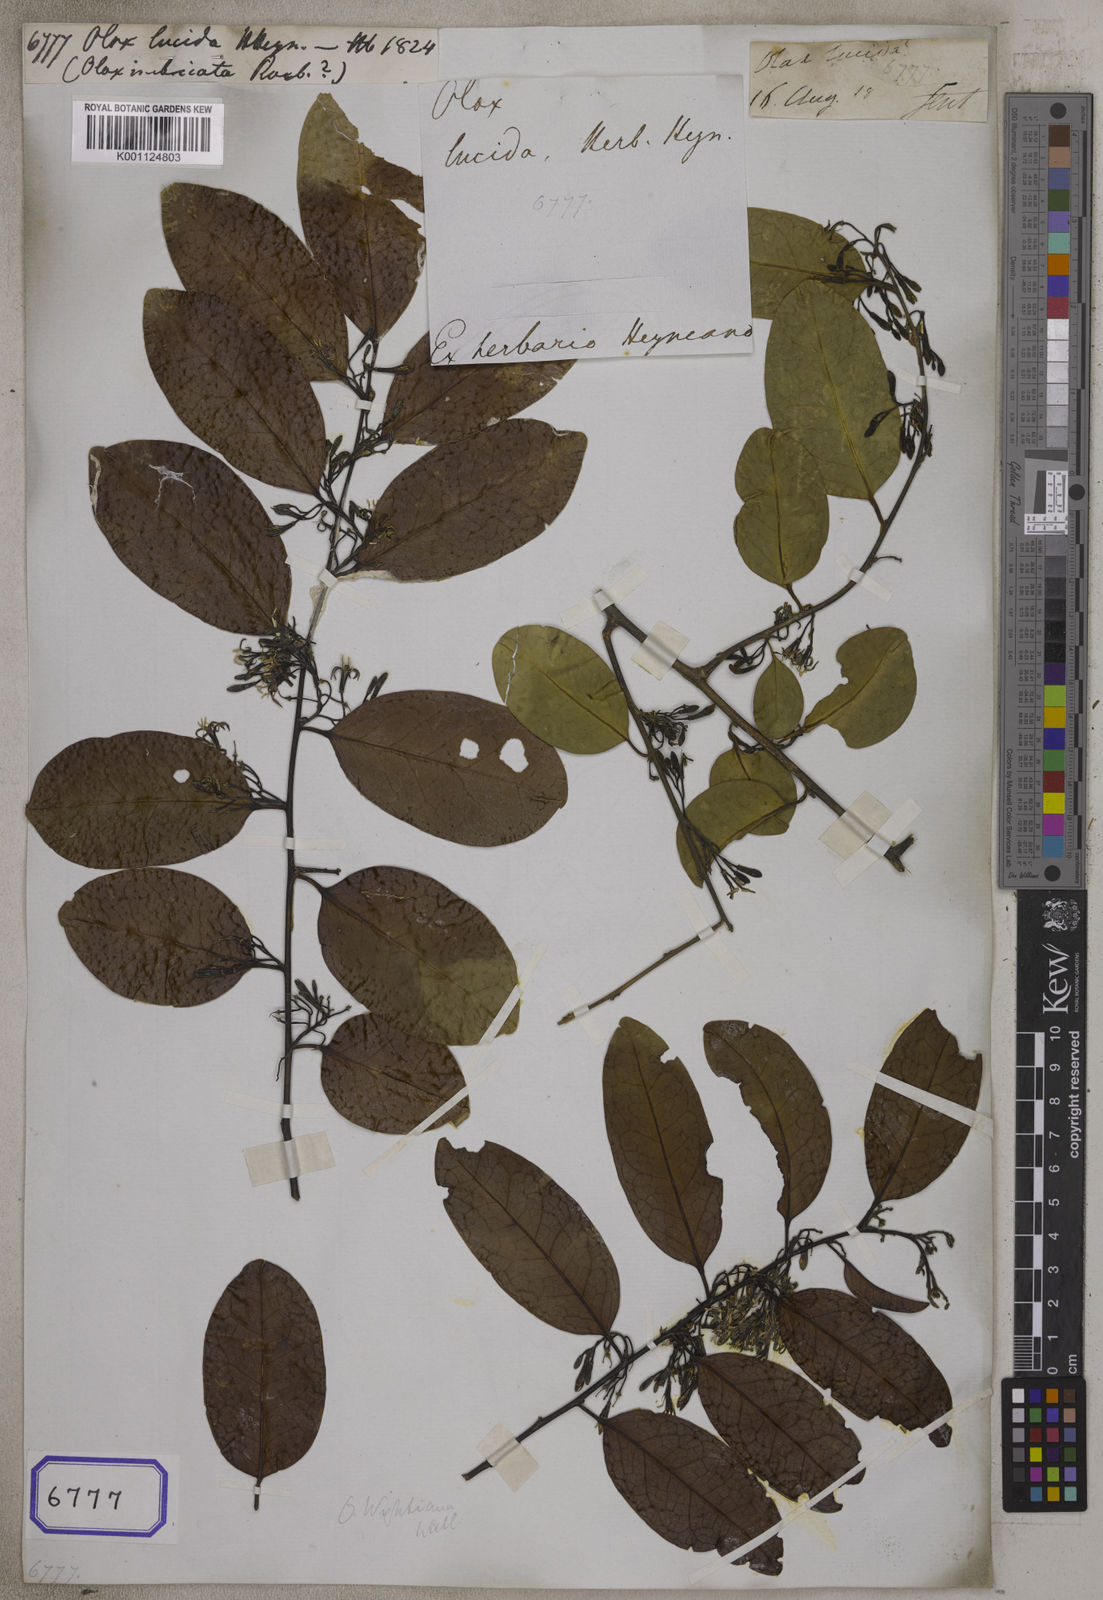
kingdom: Plantae
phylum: Tracheophyta
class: Magnoliopsida
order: Santalales
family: Olacaceae
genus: Olax
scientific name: Olax
